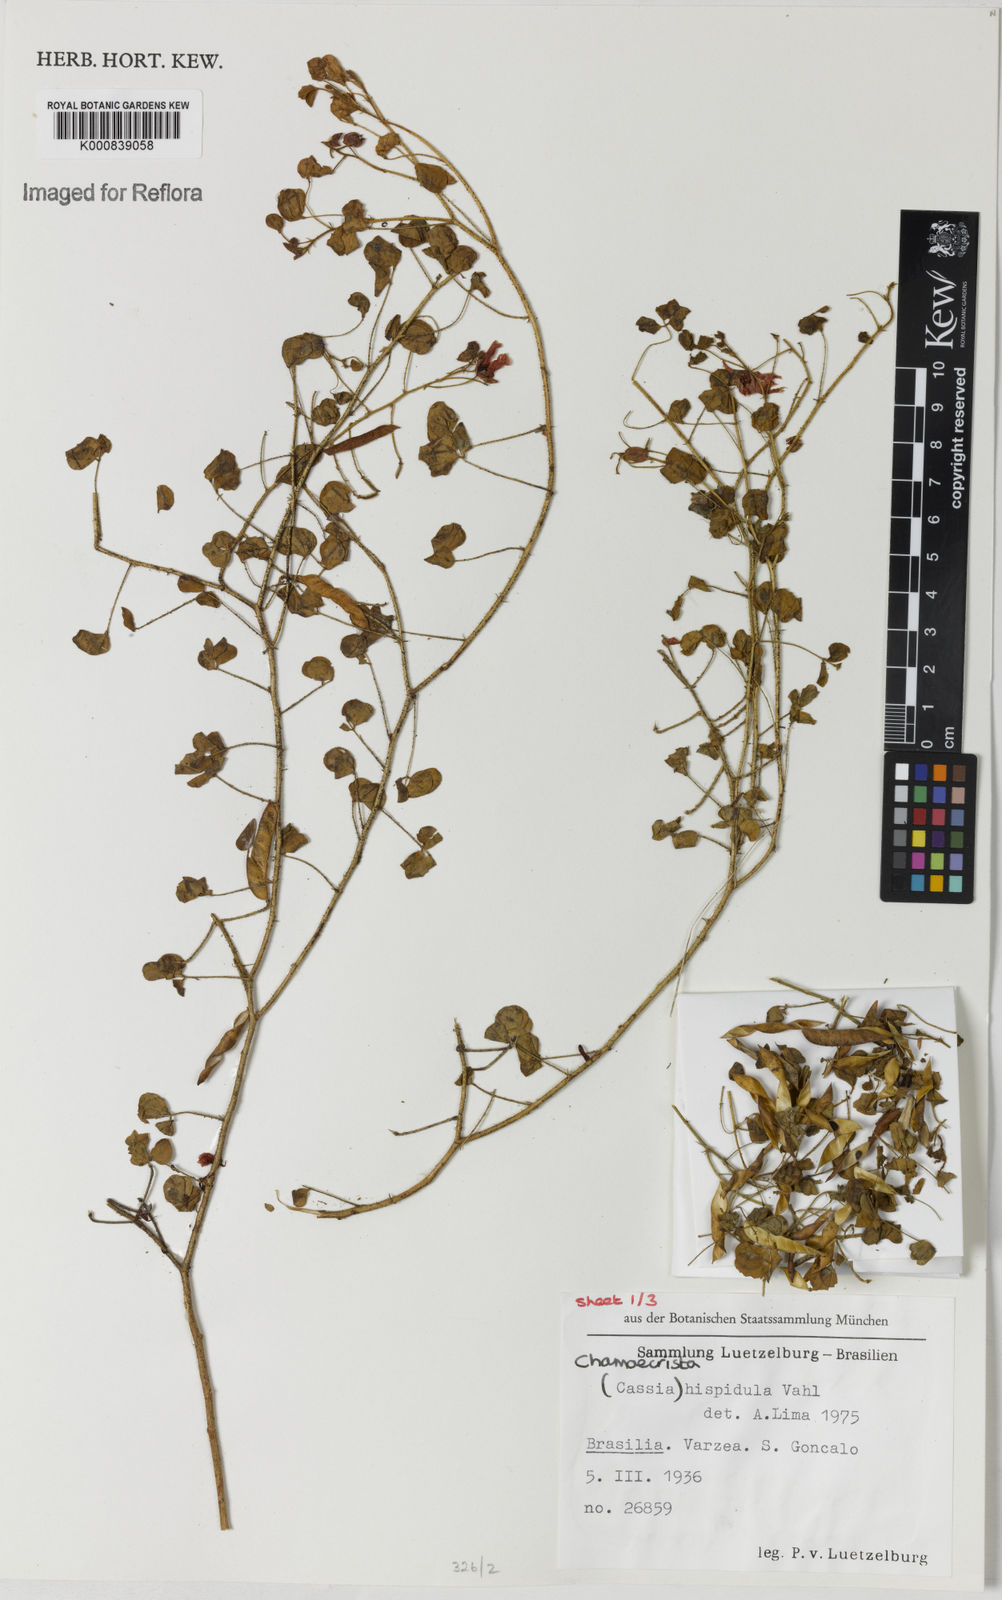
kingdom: Plantae
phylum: Tracheophyta
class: Magnoliopsida
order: Fabales
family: Fabaceae
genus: Chamaecrista
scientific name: Chamaecrista hispidula
